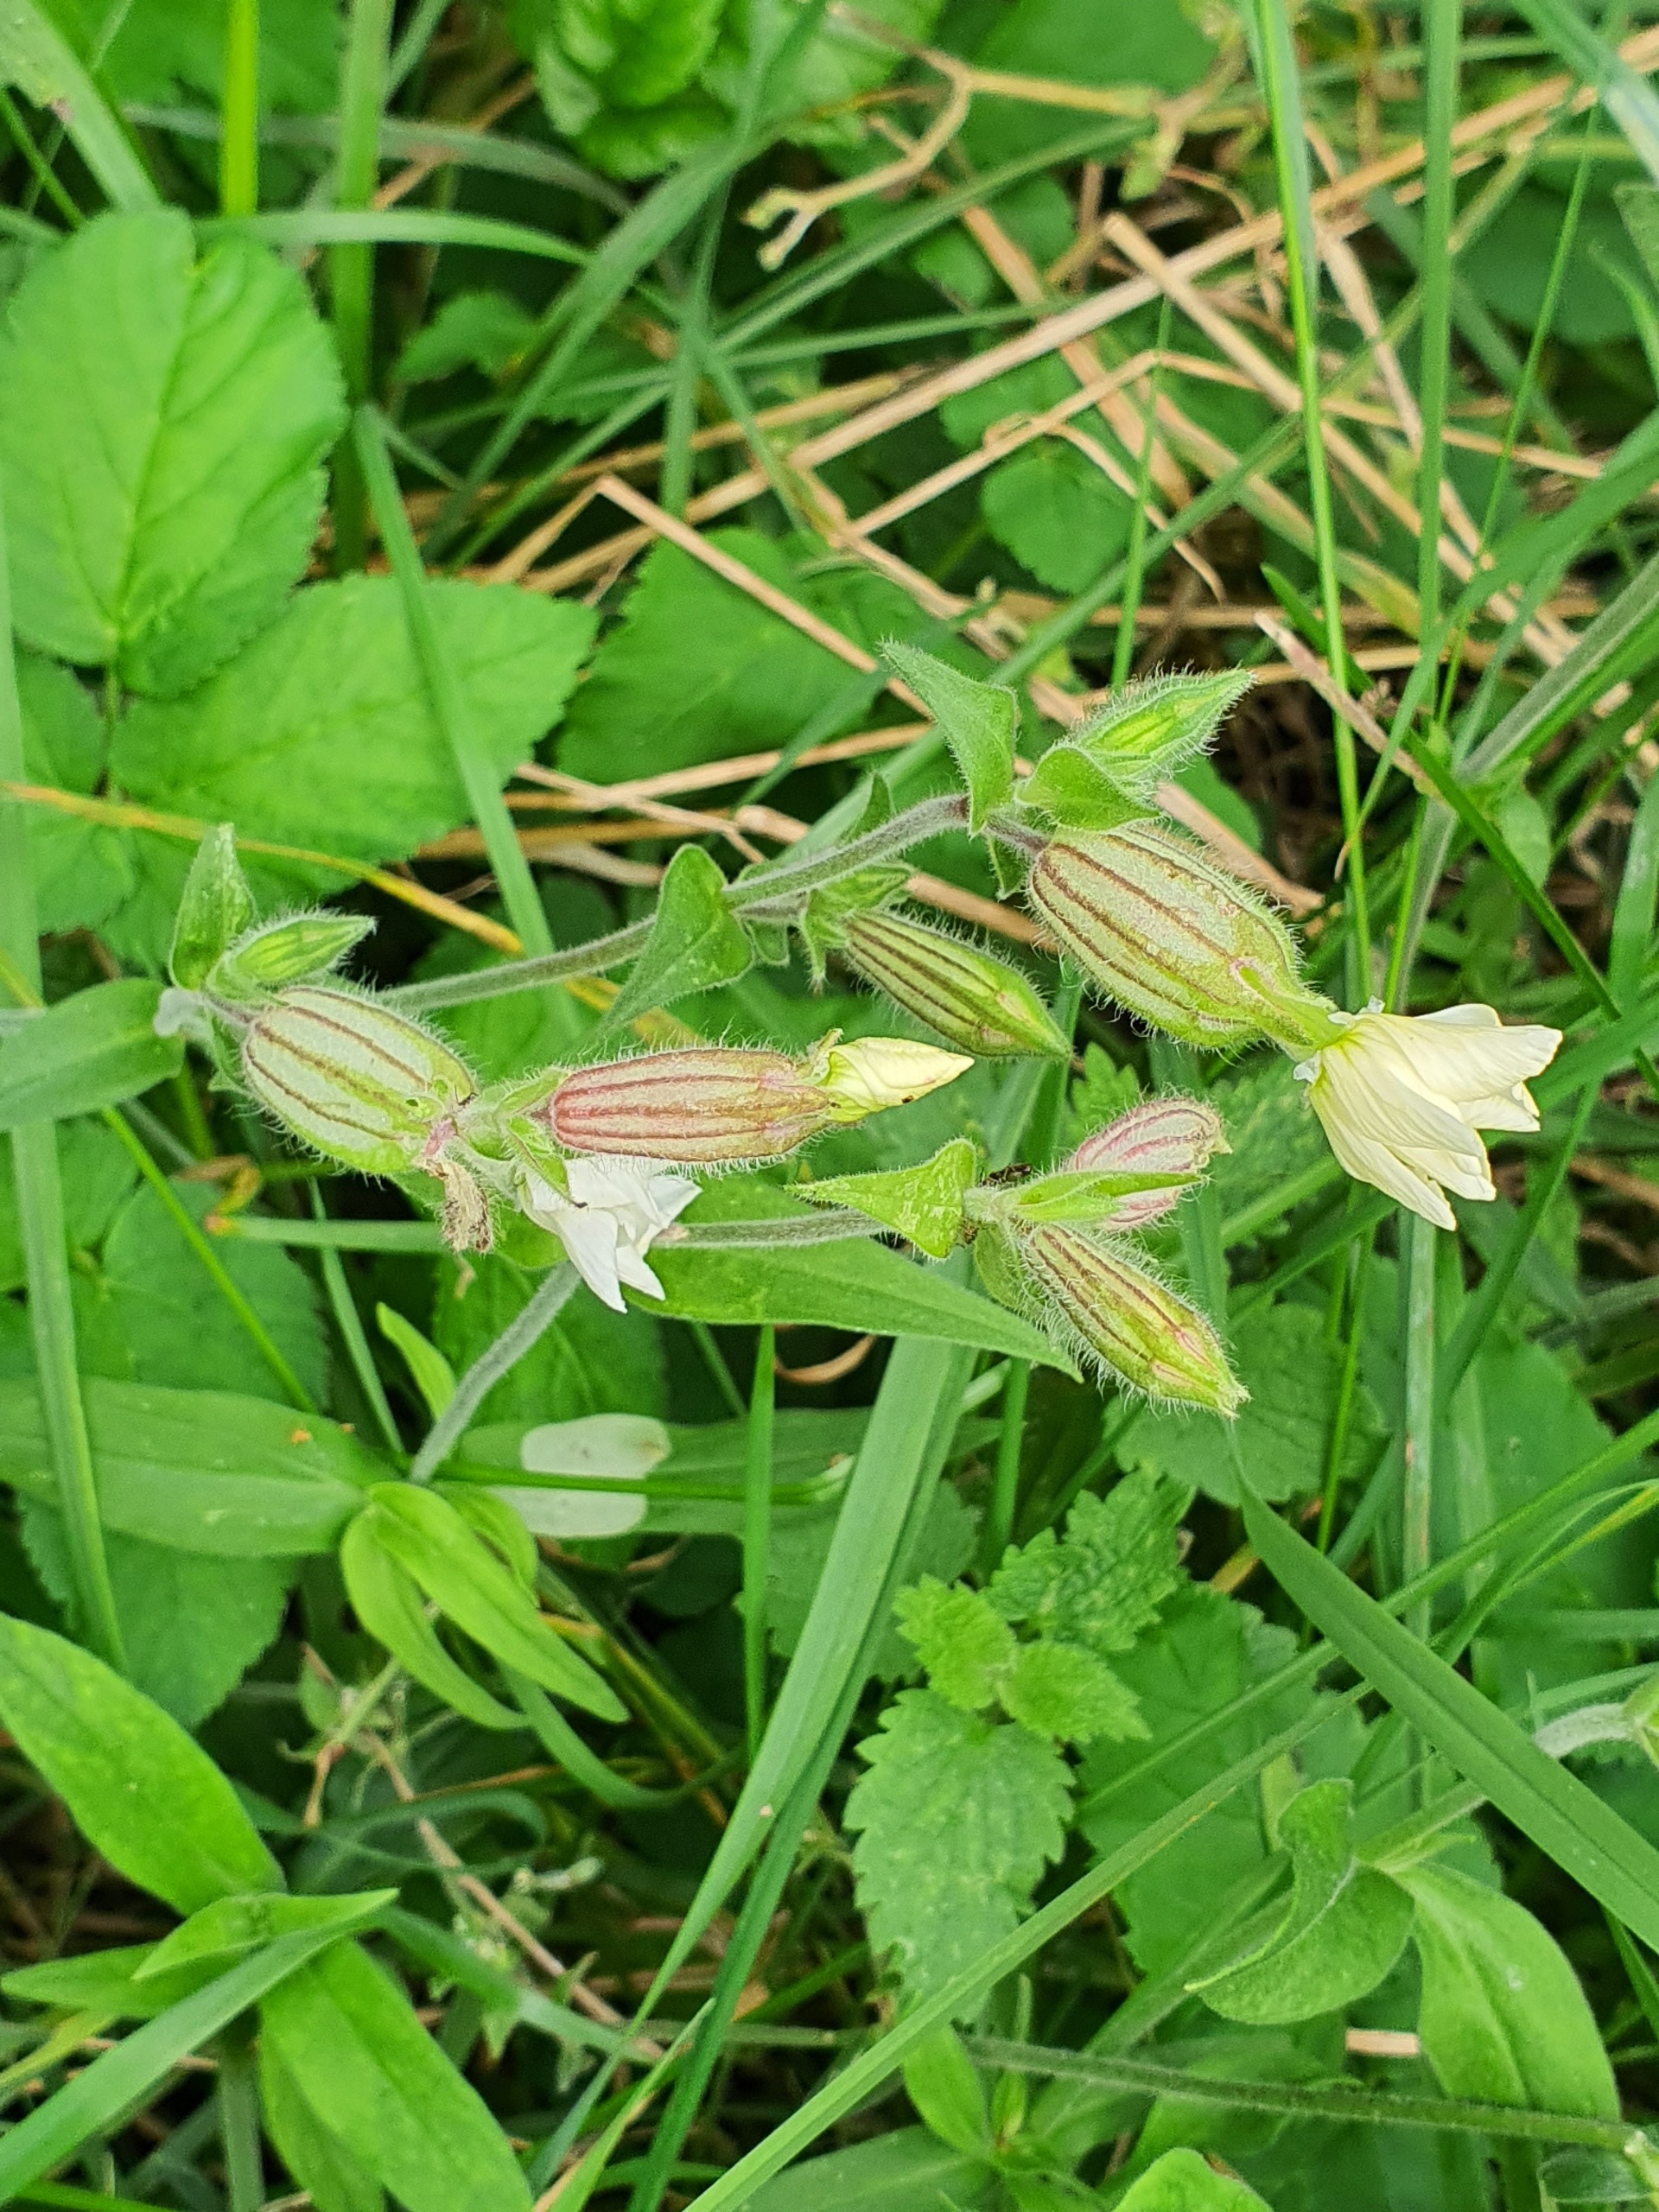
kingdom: Plantae
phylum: Tracheophyta
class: Magnoliopsida
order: Caryophyllales
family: Caryophyllaceae
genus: Silene
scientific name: Silene latifolia
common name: Aftenpragtstjerne
